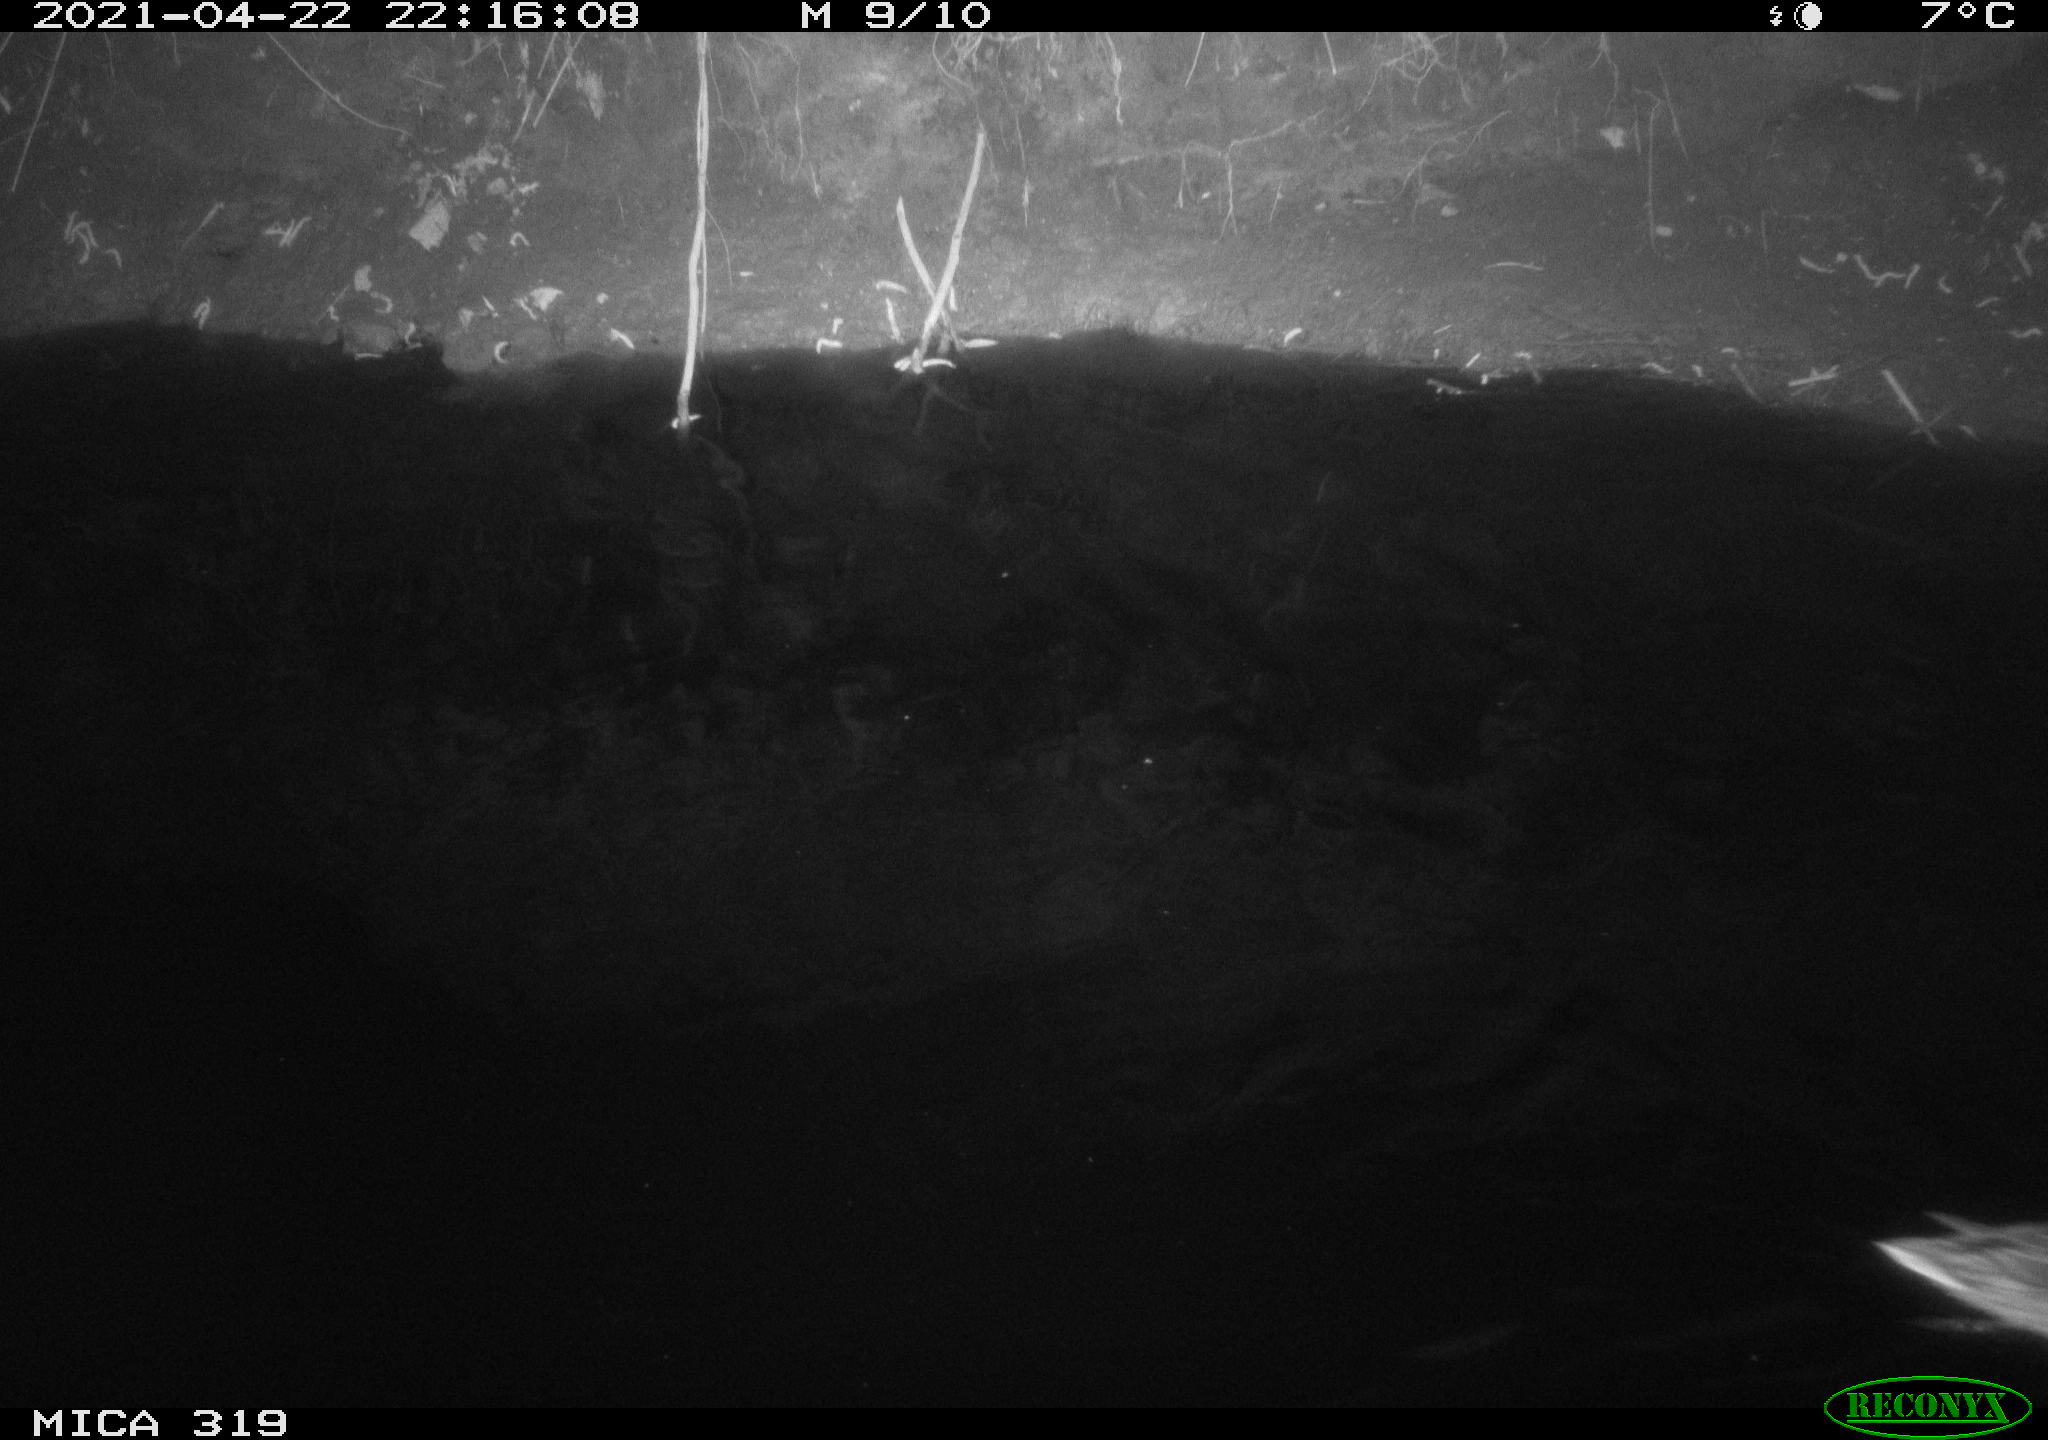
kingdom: Animalia
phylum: Chordata
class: Aves
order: Anseriformes
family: Anatidae
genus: Anas
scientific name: Anas platyrhynchos
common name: Mallard
